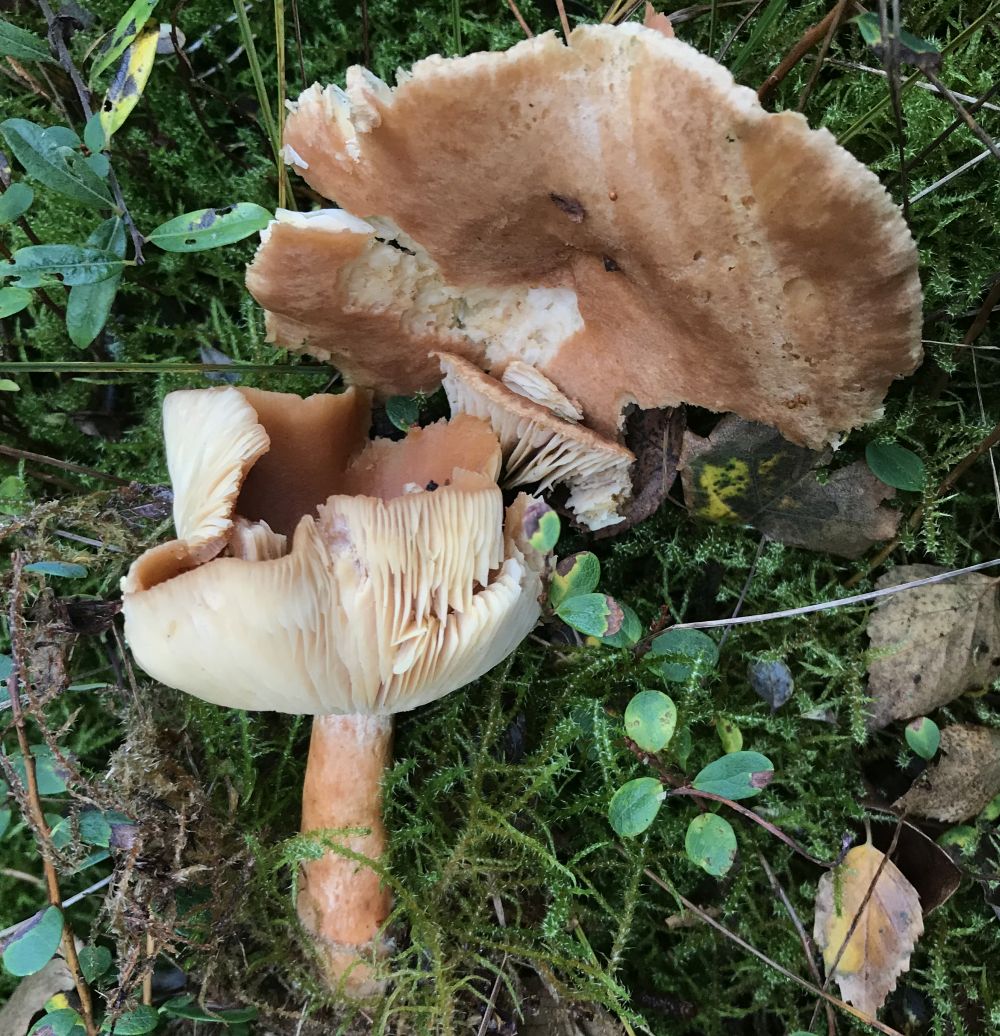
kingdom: Fungi
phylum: Basidiomycota
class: Agaricomycetes
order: Russulales
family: Russulaceae
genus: Lactarius
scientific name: Lactarius helvus
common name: mose-mælkehat
